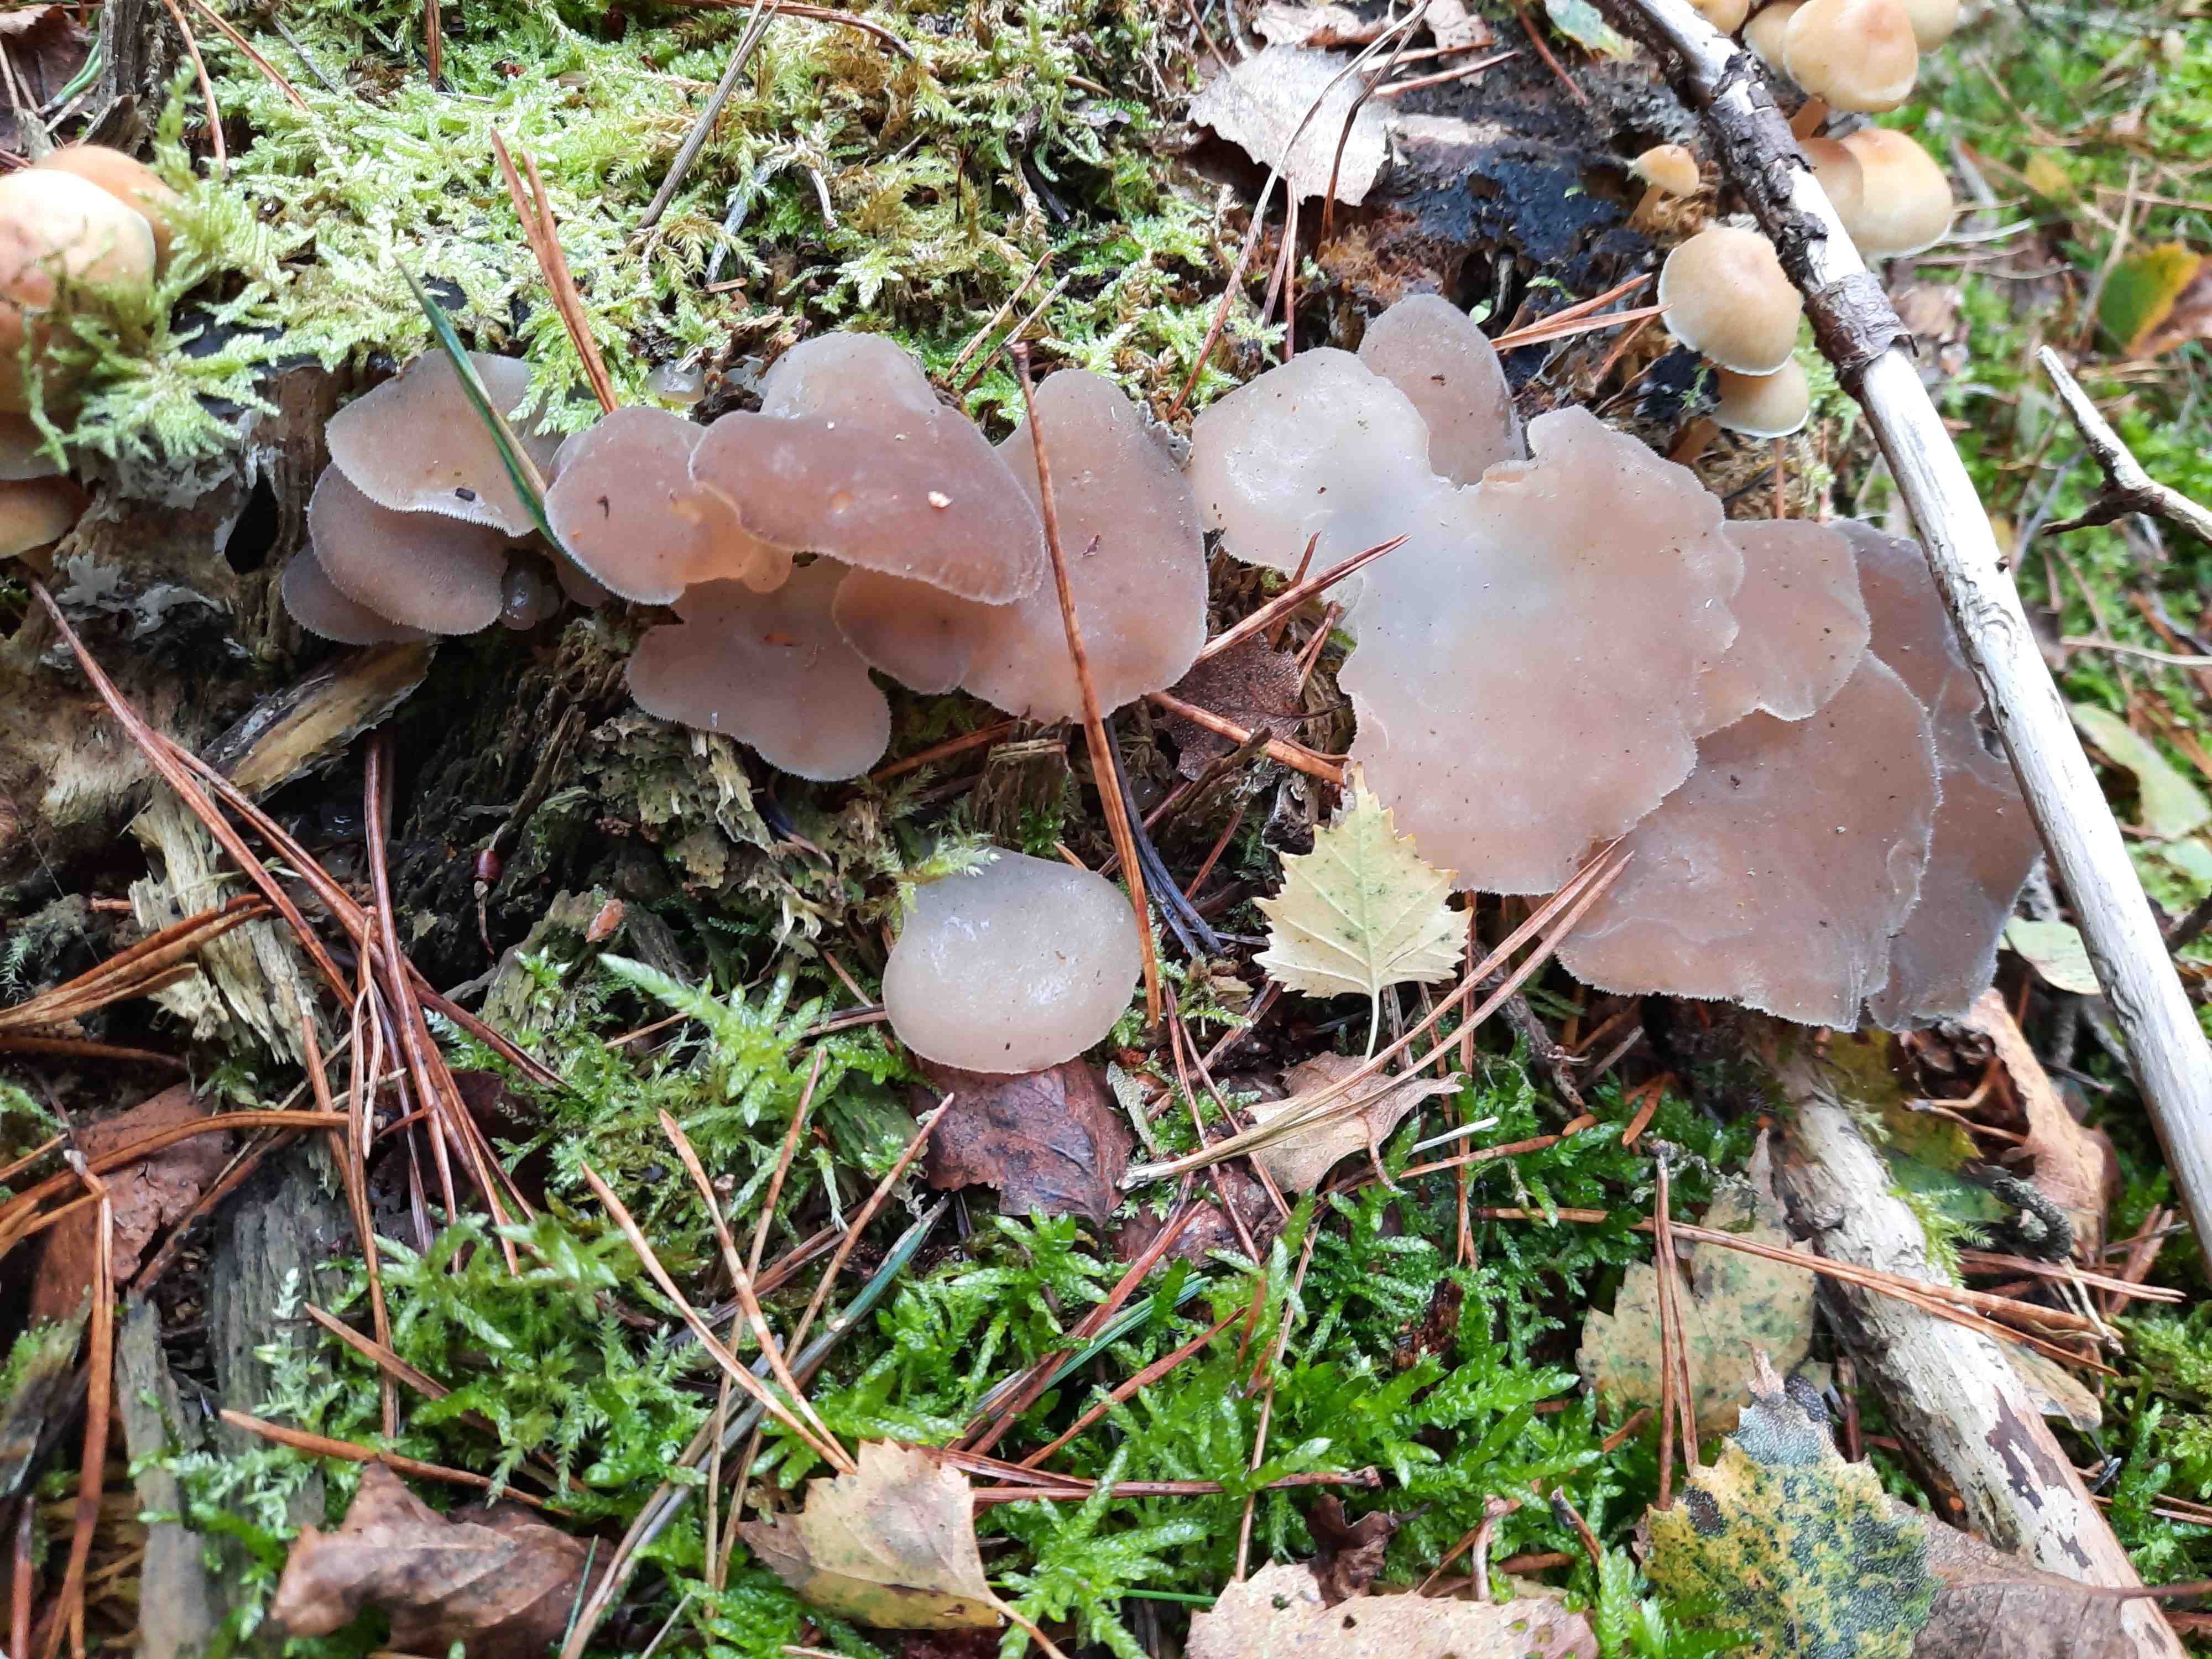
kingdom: Fungi
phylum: Basidiomycota
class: Agaricomycetes
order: Auriculariales
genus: Pseudohydnum
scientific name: Pseudohydnum gelatinosum
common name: bævretand
